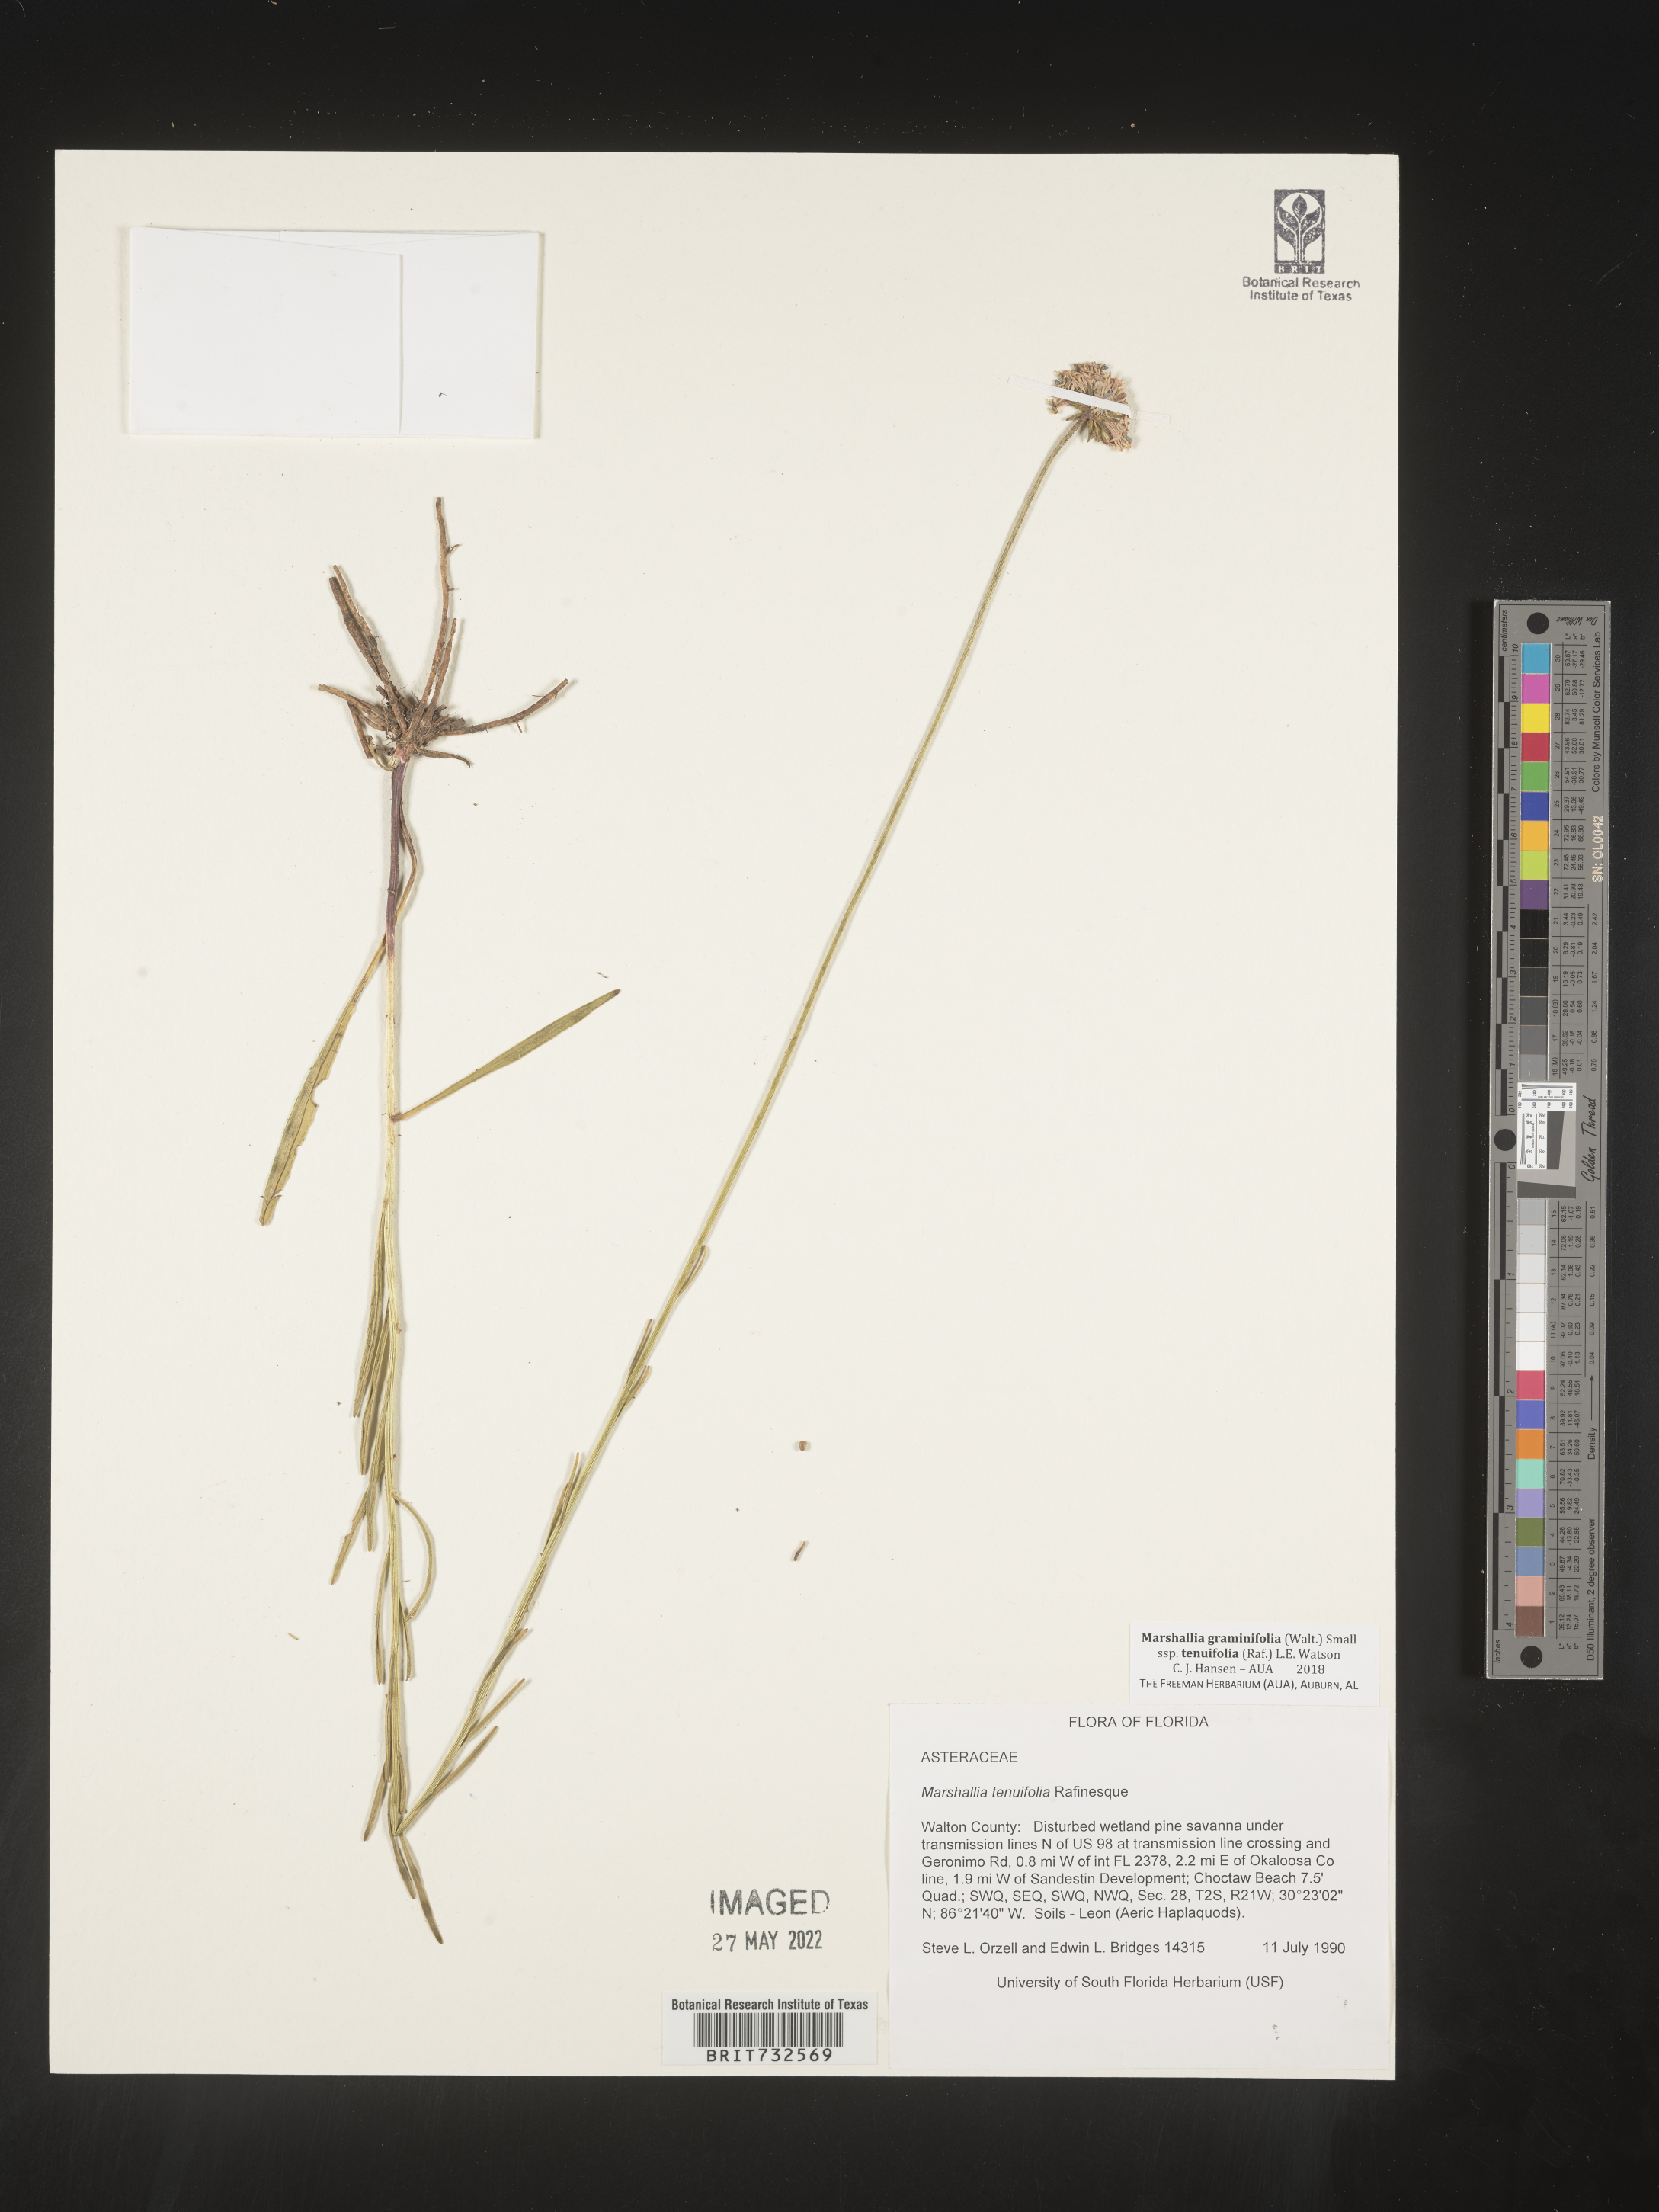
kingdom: Plantae
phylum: Tracheophyta
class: Magnoliopsida
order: Asterales
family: Asteraceae
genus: Marshallia
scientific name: Marshallia graminifolia
